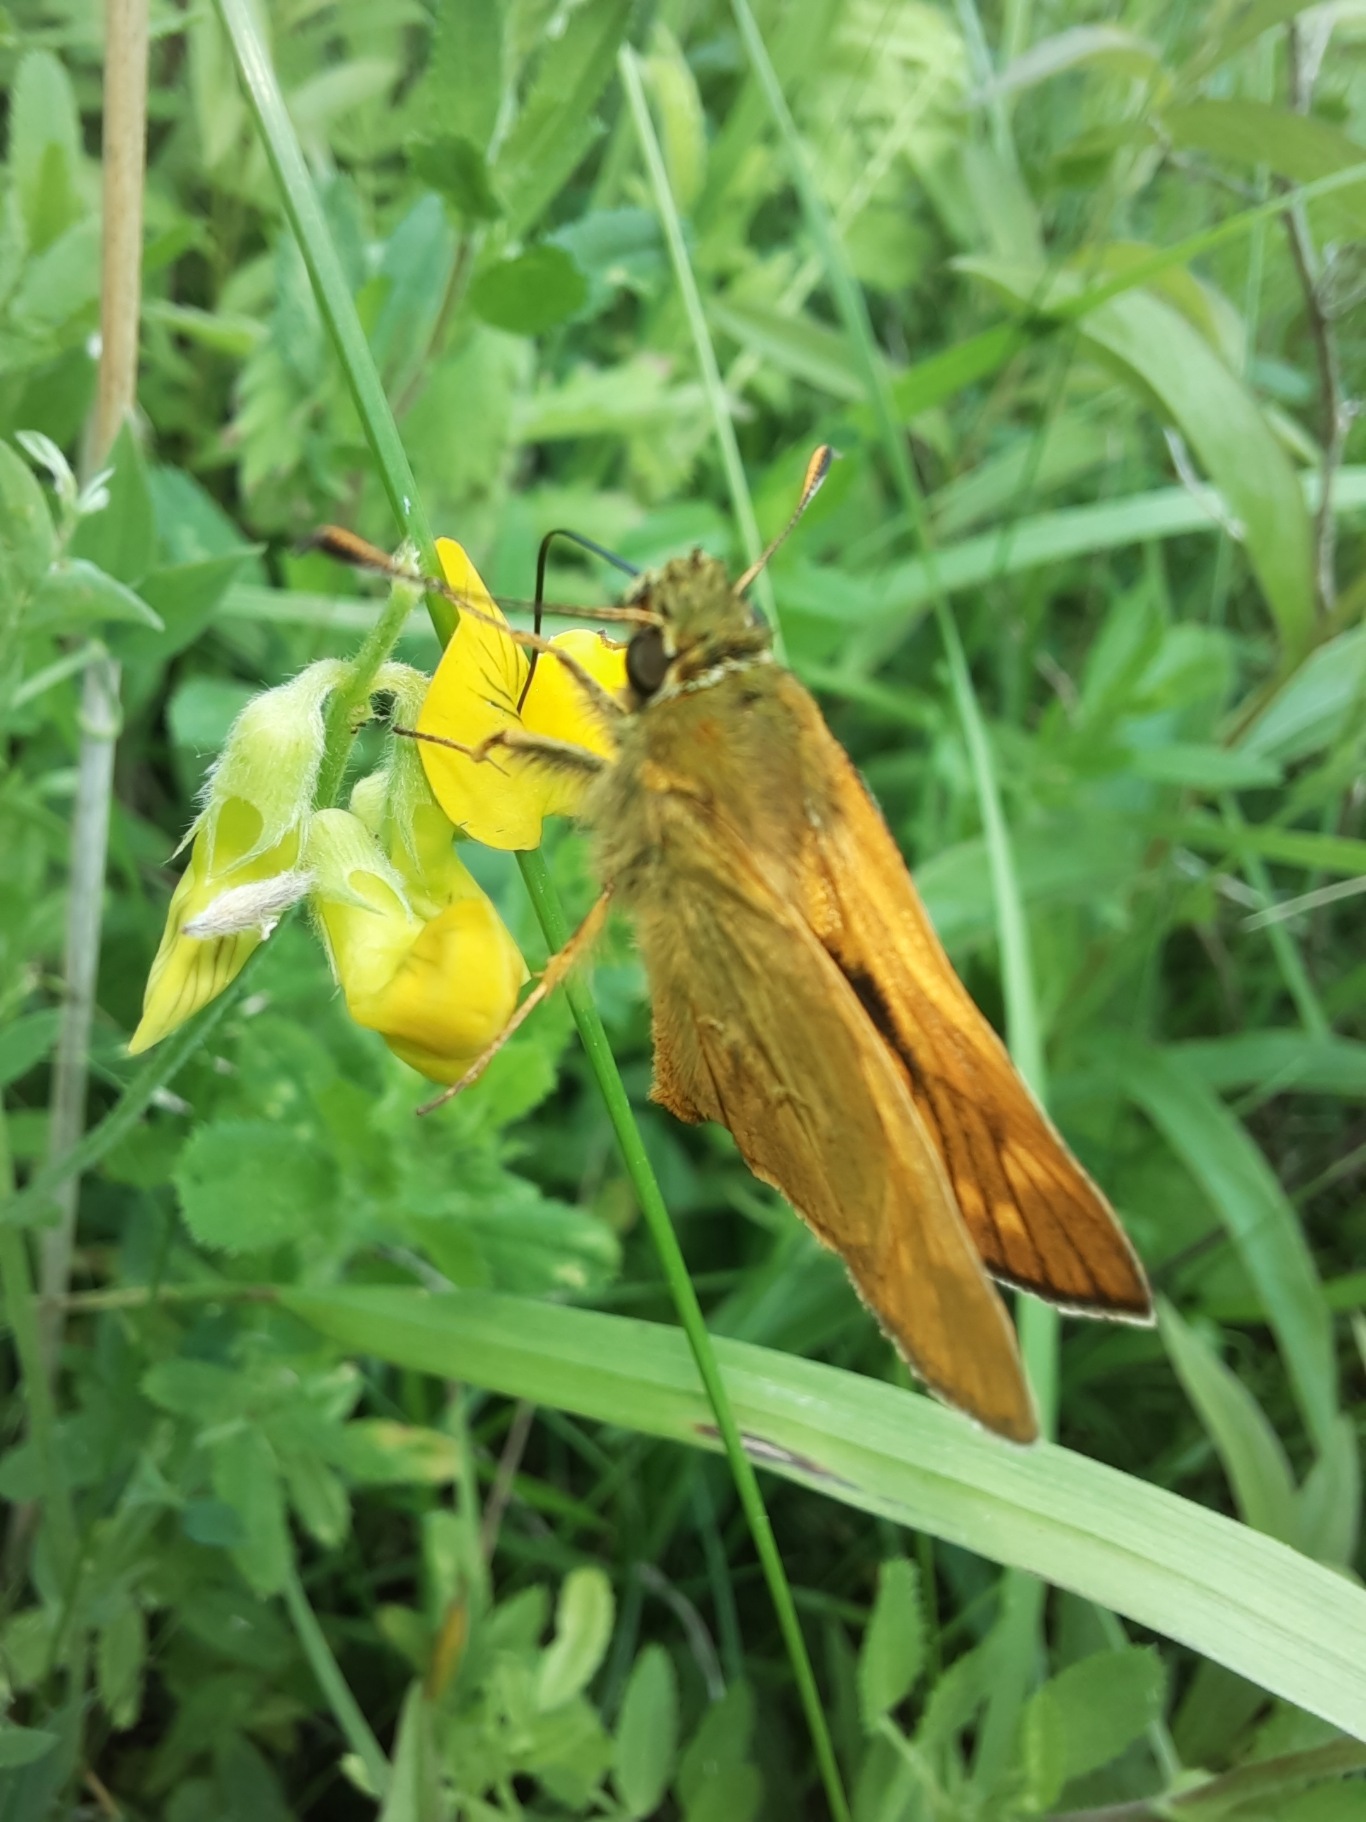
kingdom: Animalia
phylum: Arthropoda
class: Insecta
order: Lepidoptera
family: Hesperiidae
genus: Ochlodes
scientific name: Ochlodes venata
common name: Stor bredpande
